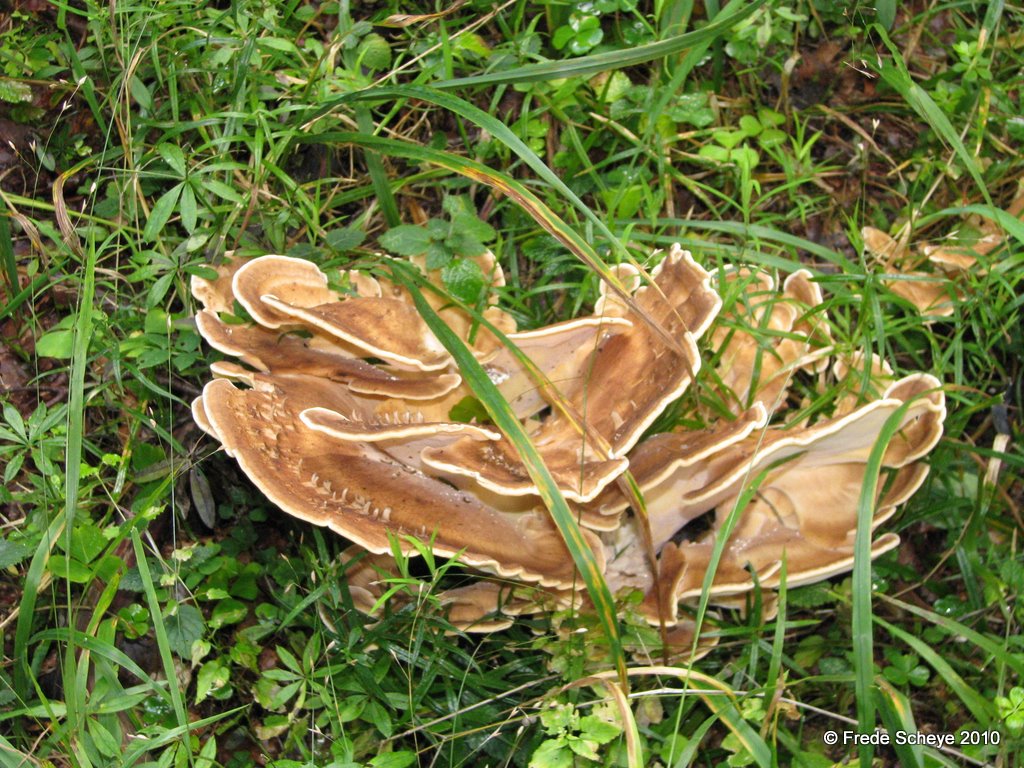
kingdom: Fungi
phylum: Basidiomycota
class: Agaricomycetes
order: Polyporales
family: Meripilaceae
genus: Meripilus
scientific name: Meripilus giganteus
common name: kæmpeporesvamp
